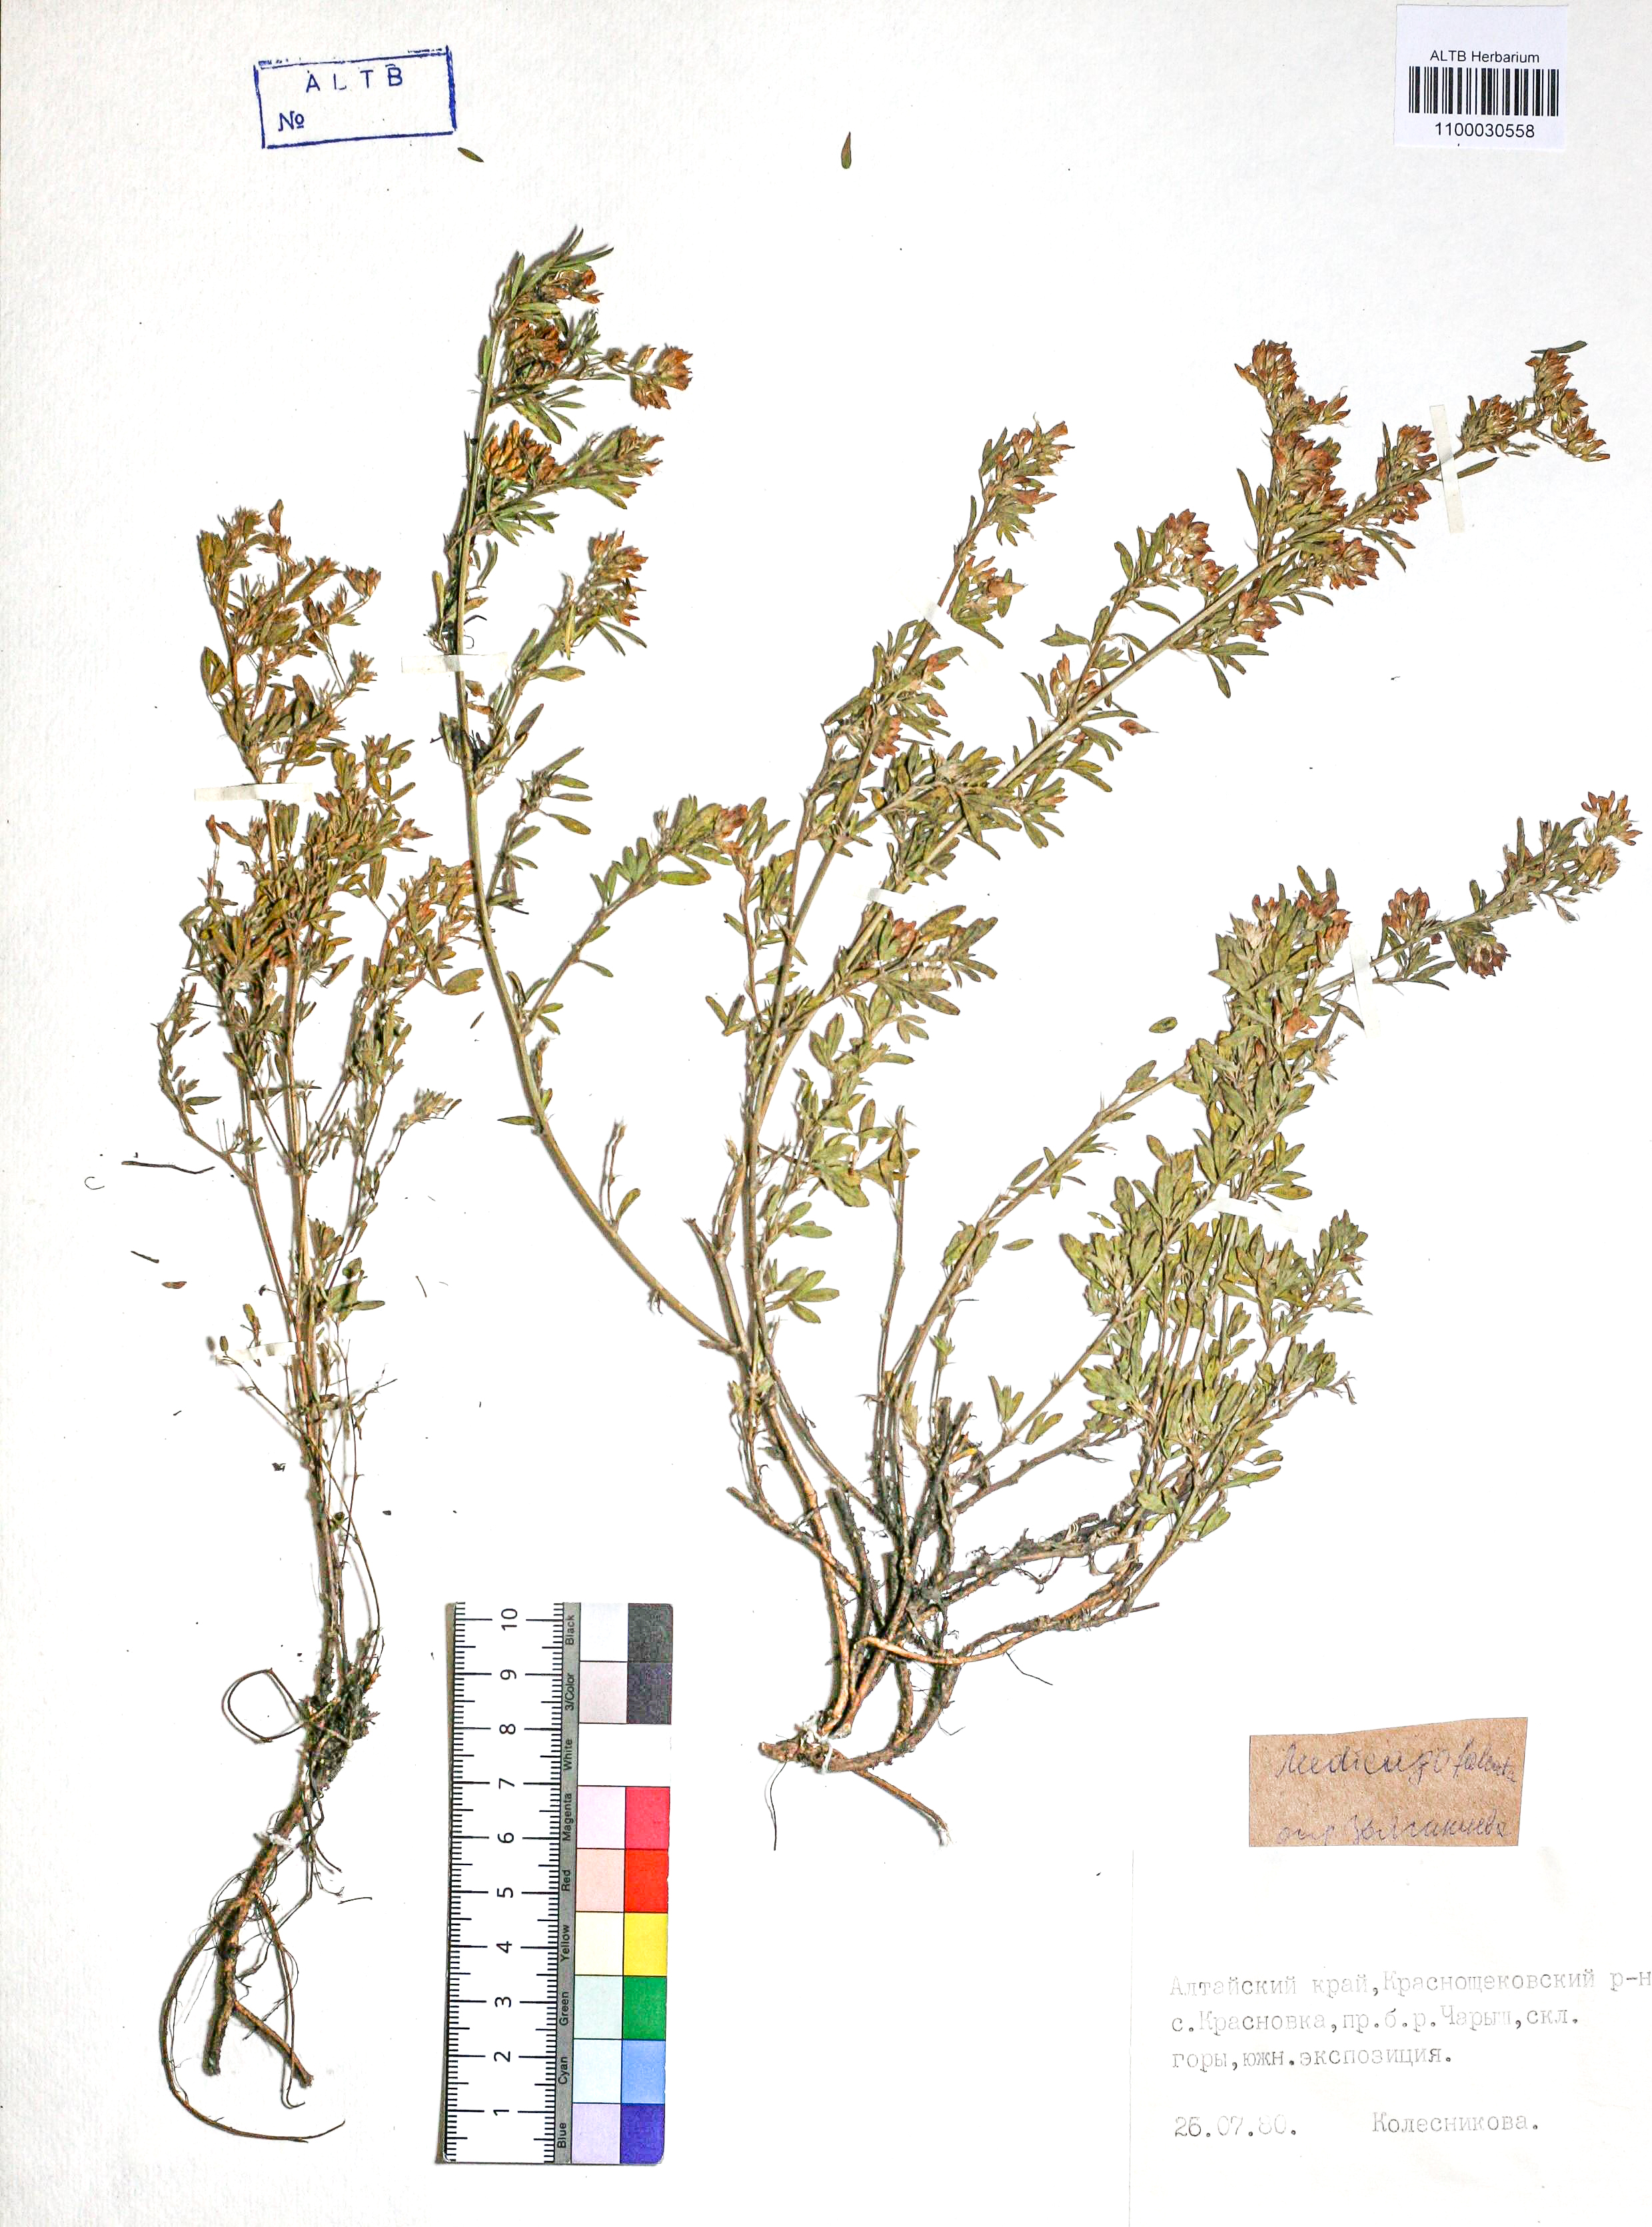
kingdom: Plantae
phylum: Tracheophyta
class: Magnoliopsida
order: Fabales
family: Fabaceae
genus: Medicago
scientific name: Medicago falcata
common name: Sickle medick
